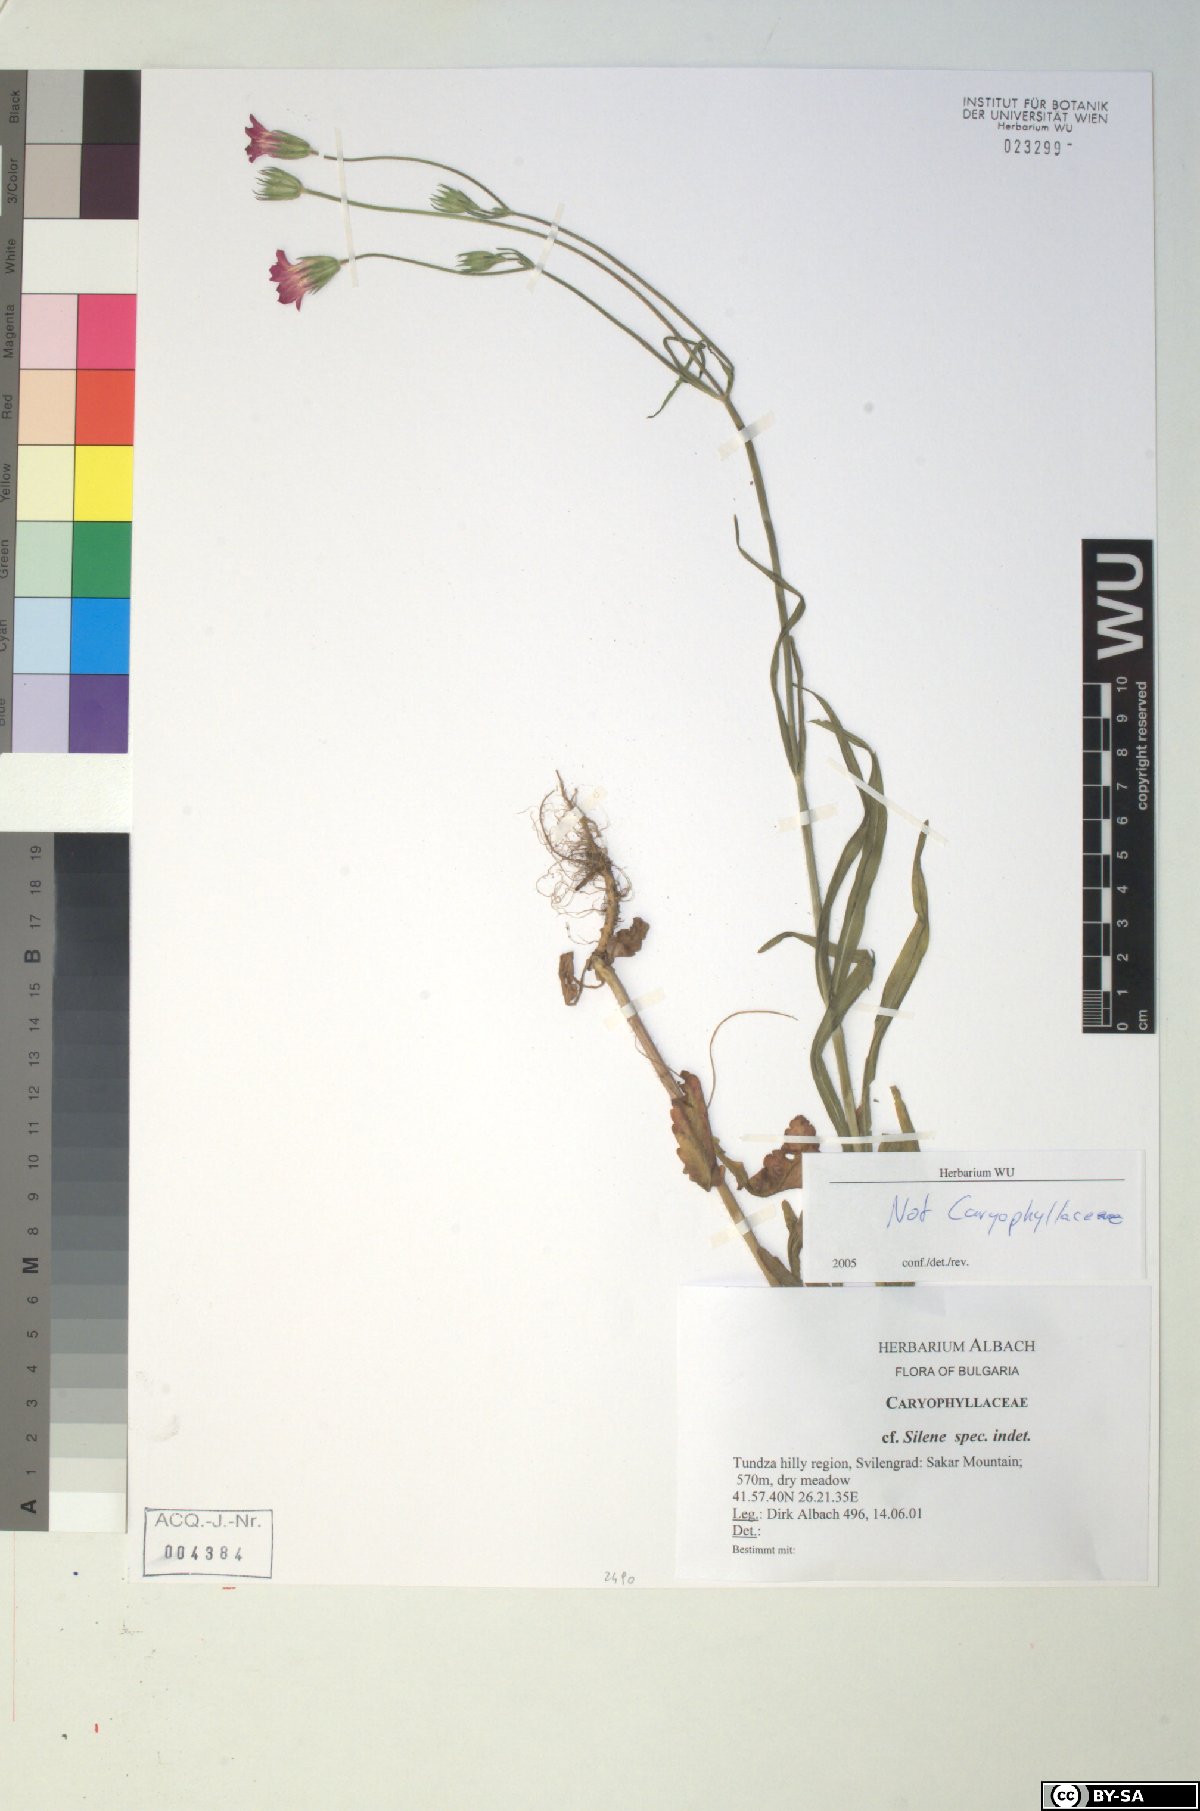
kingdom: Plantae
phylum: Tracheophyta
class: Magnoliopsida
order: Dipsacales
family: Caprifoliaceae
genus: Knautia
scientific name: Knautia orientalis
